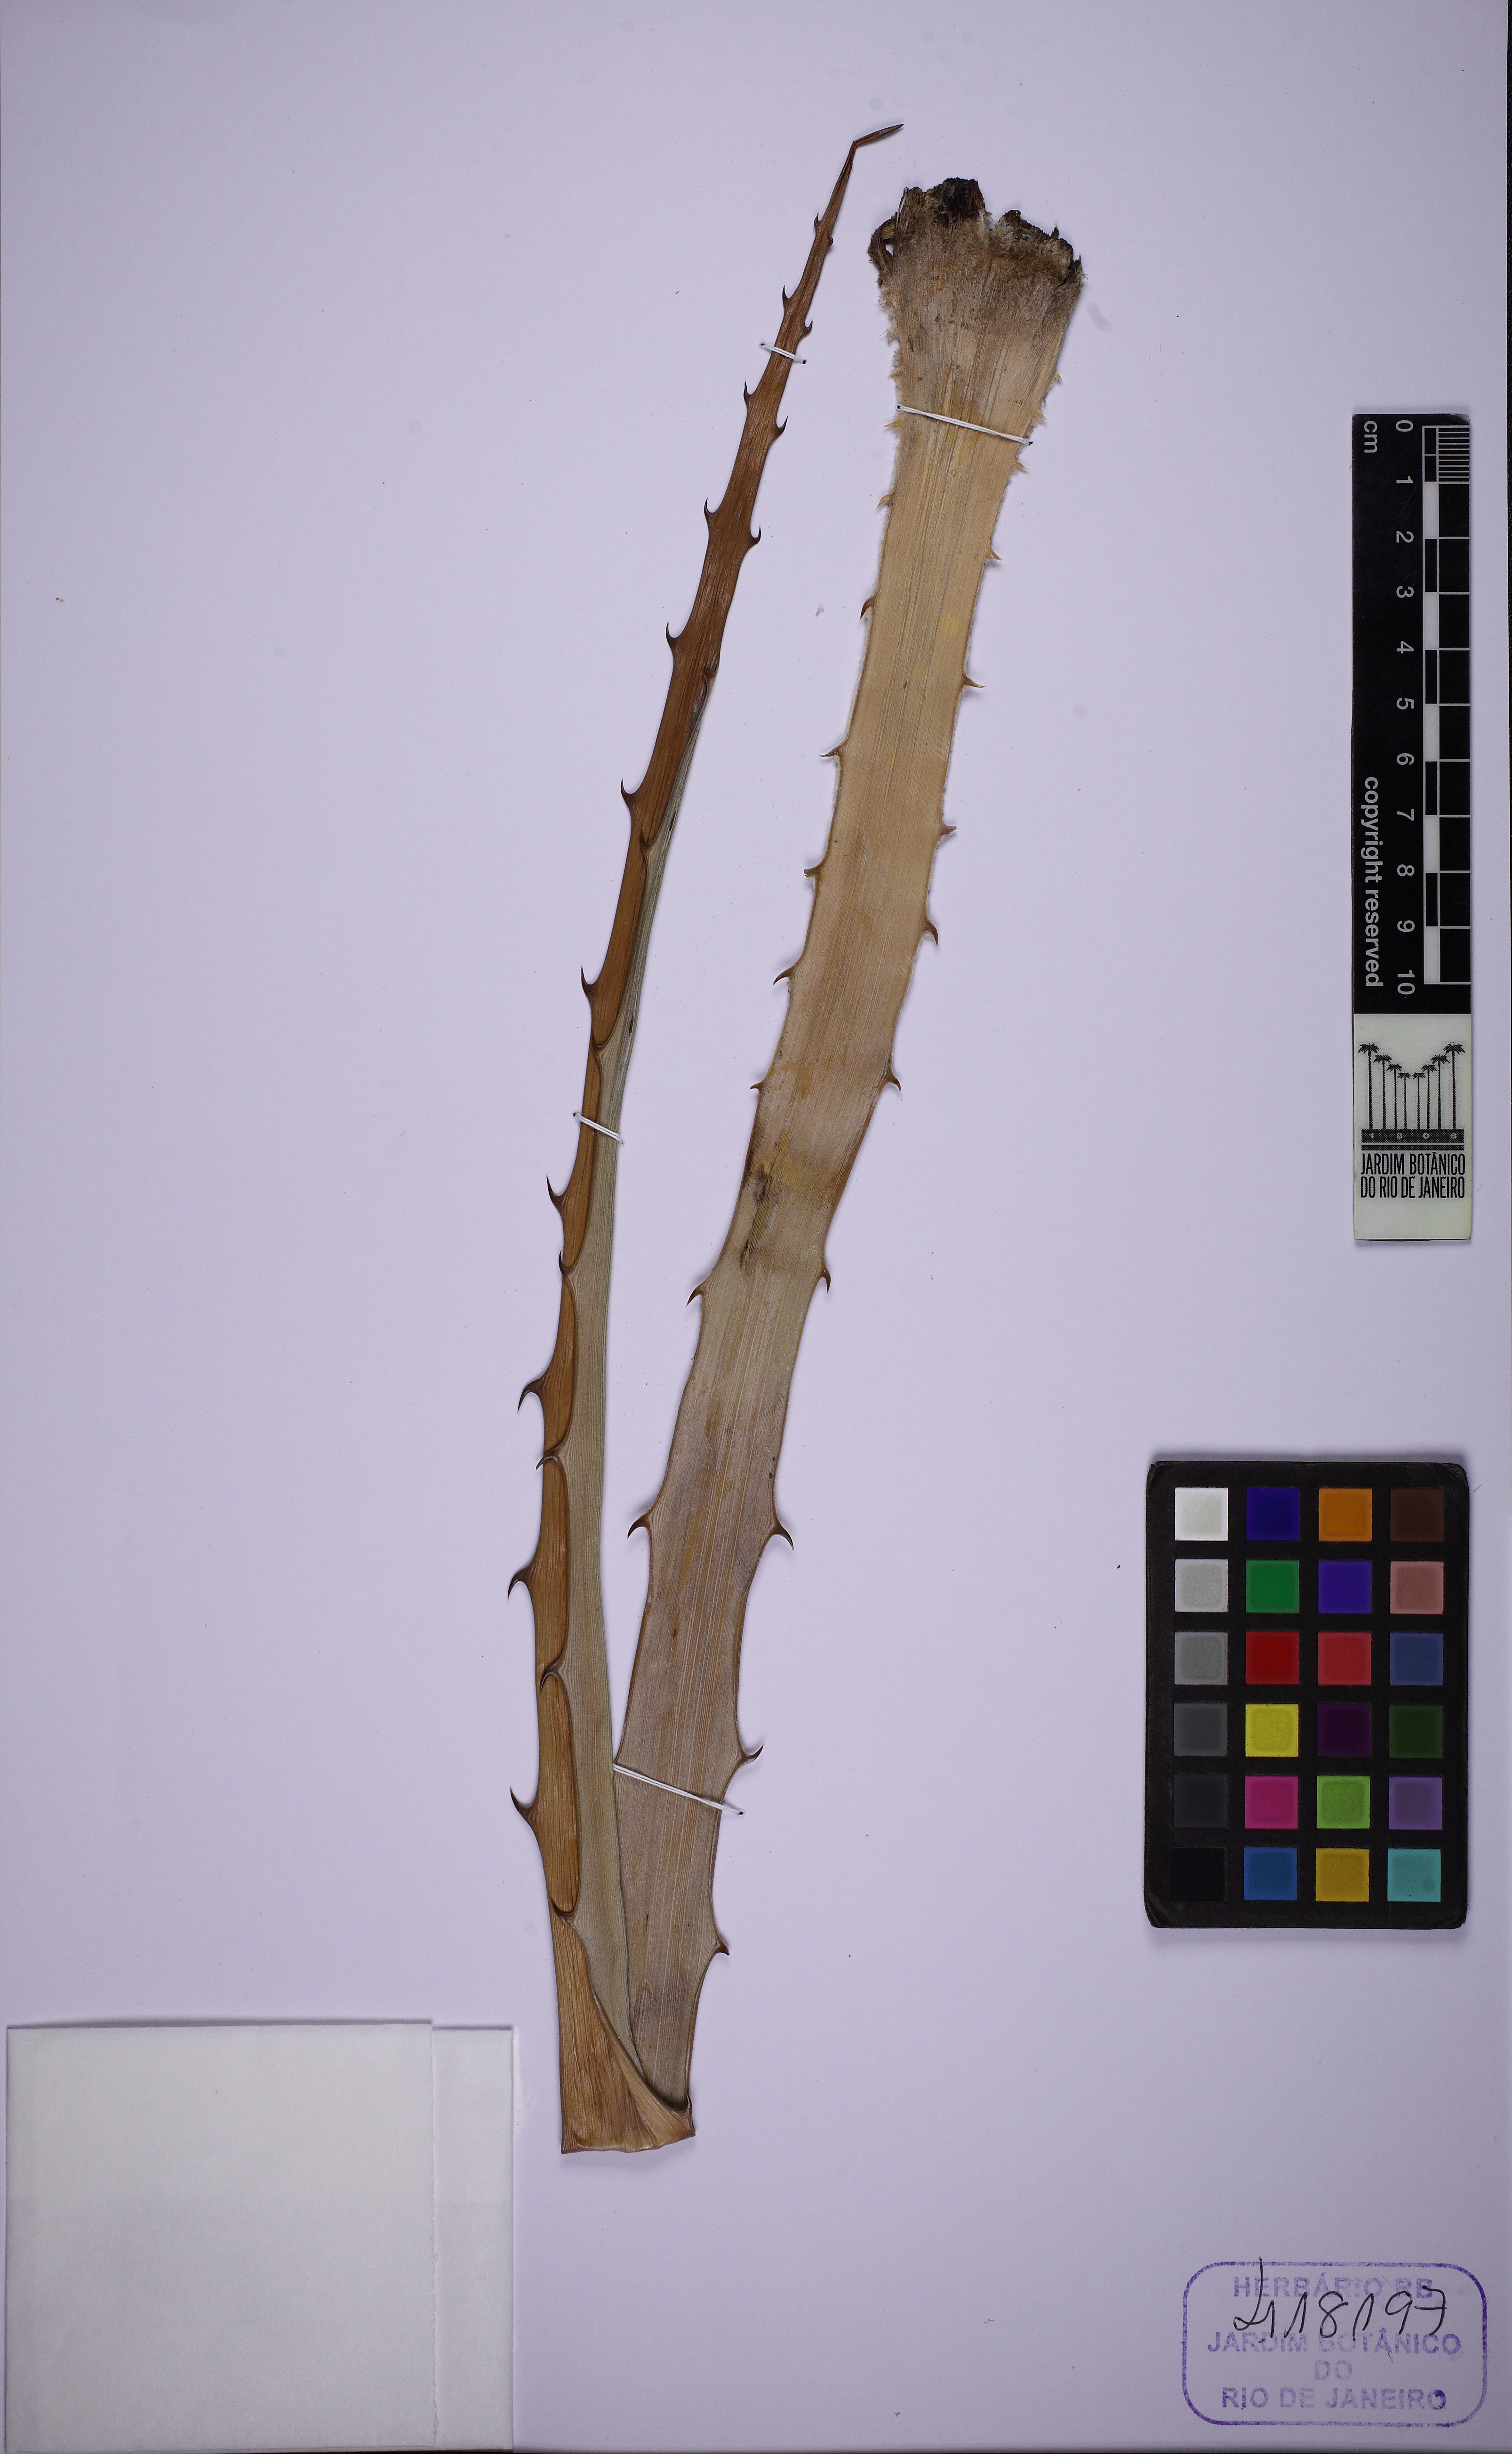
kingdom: Plantae
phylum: Tracheophyta
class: Liliopsida
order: Poales
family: Bromeliaceae
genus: Bromelia
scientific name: Bromelia laciniosa
